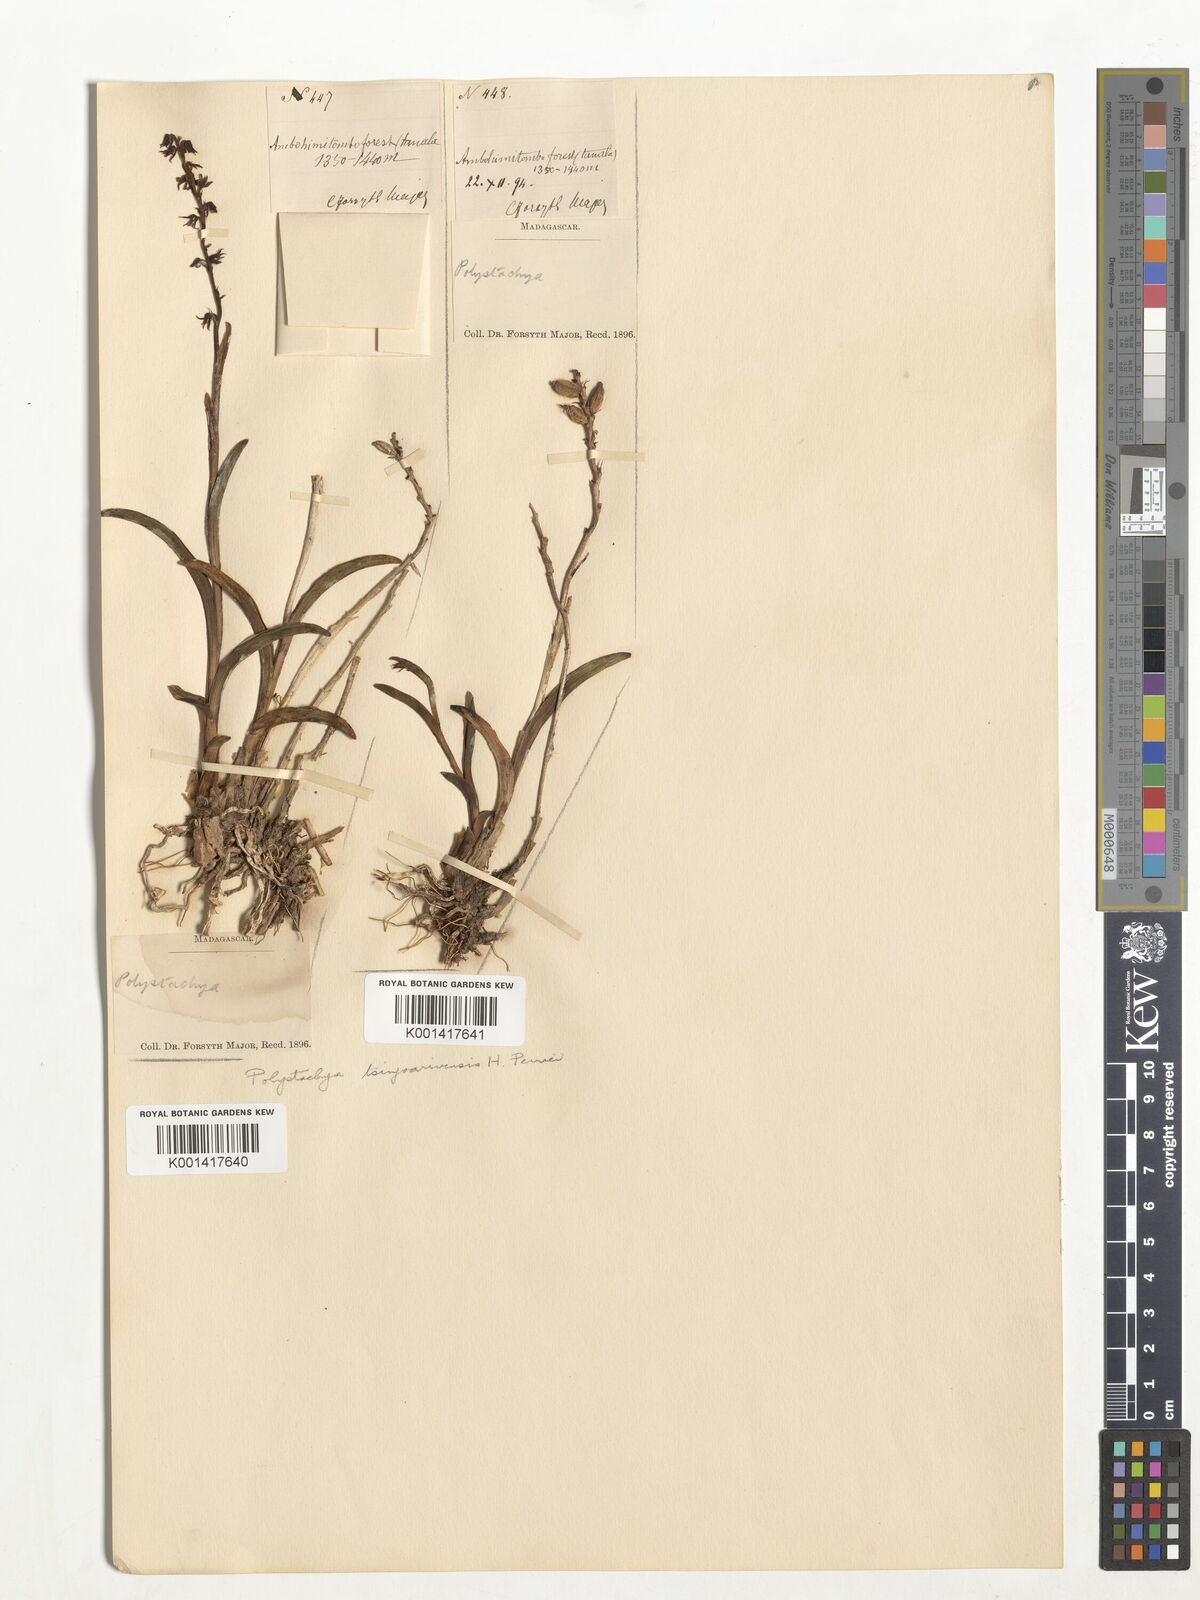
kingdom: Plantae
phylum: Tracheophyta
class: Liliopsida
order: Asparagales
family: Orchidaceae
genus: Polystachya
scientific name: Polystachya tsinjoarivensis
